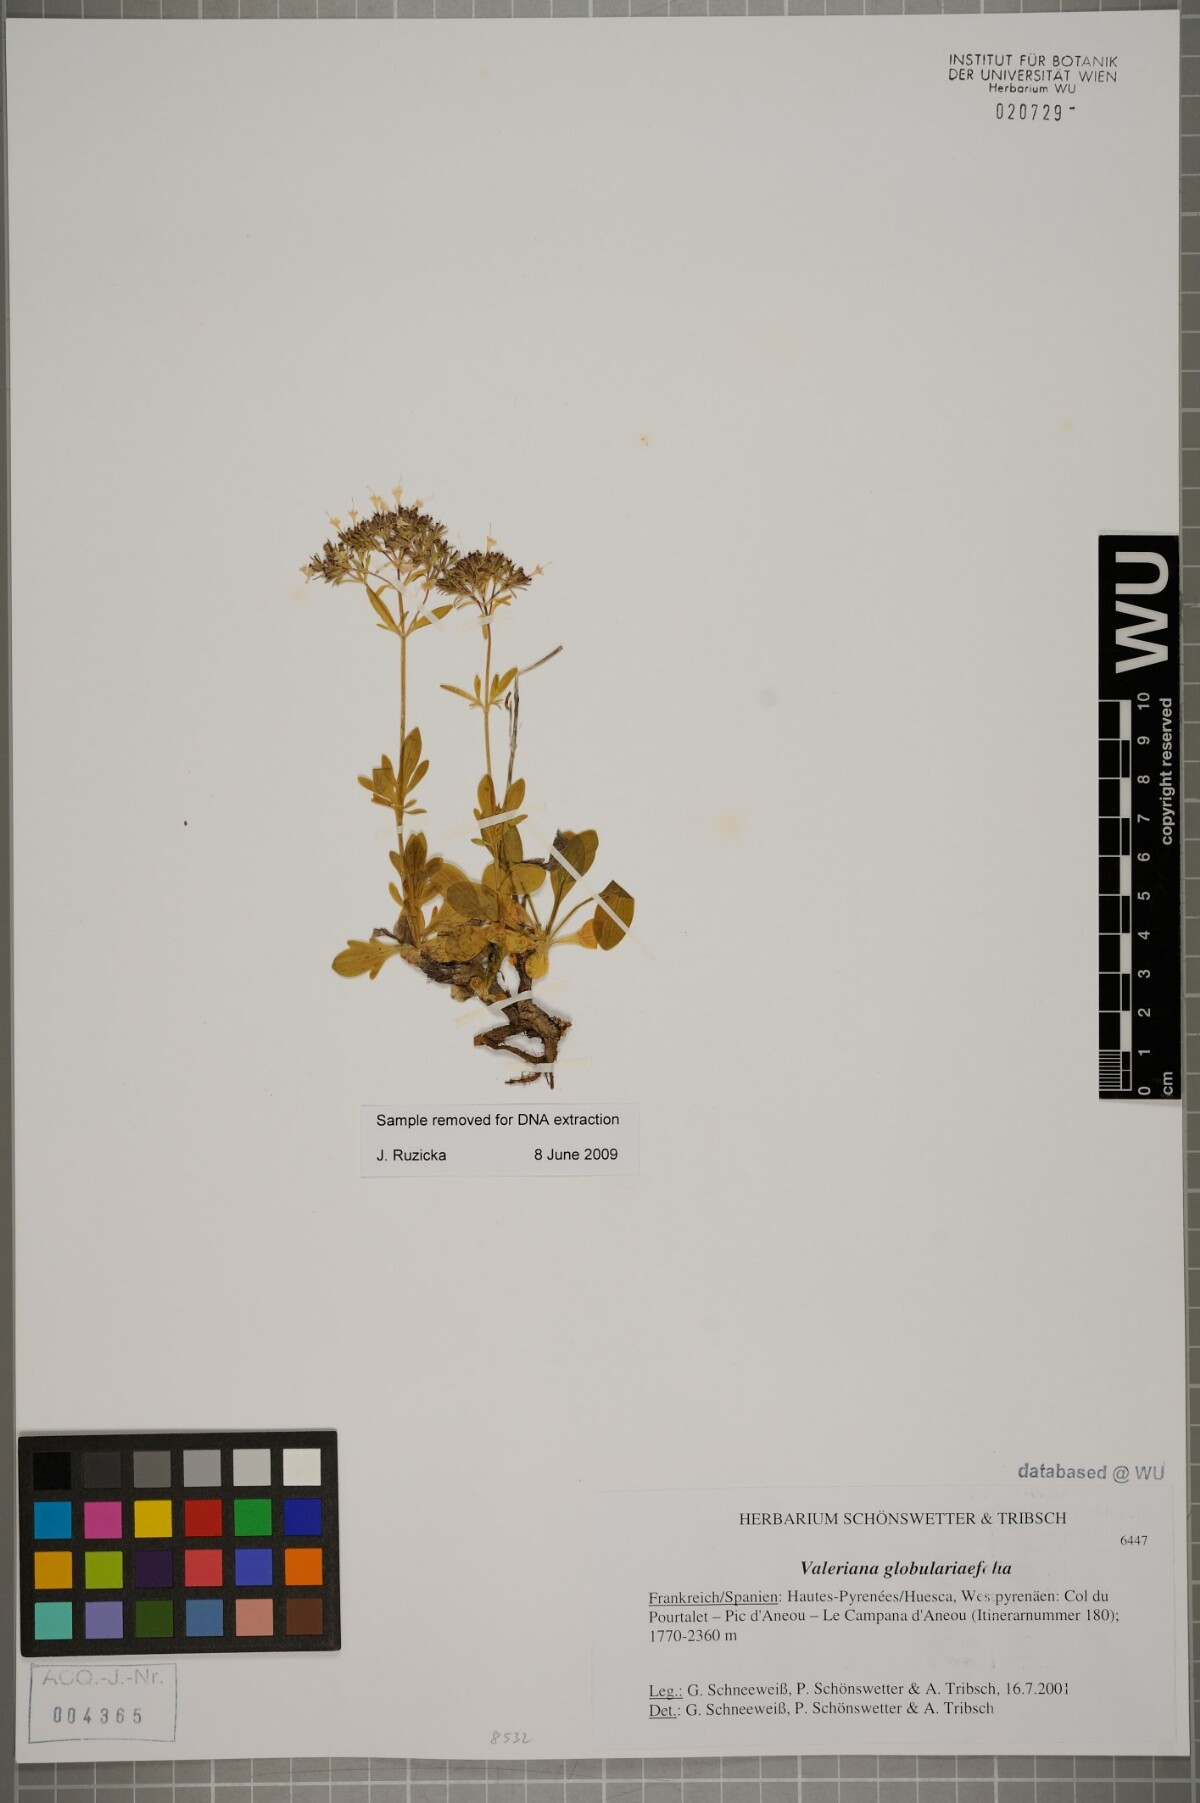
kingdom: Plantae
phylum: Tracheophyta
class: Magnoliopsida
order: Dipsacales
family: Caprifoliaceae
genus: Valeriana
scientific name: Valeriana apula
